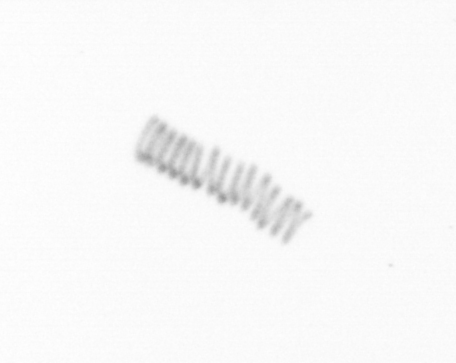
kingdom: Chromista
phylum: Ochrophyta
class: Bacillariophyceae
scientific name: Bacillariophyceae
